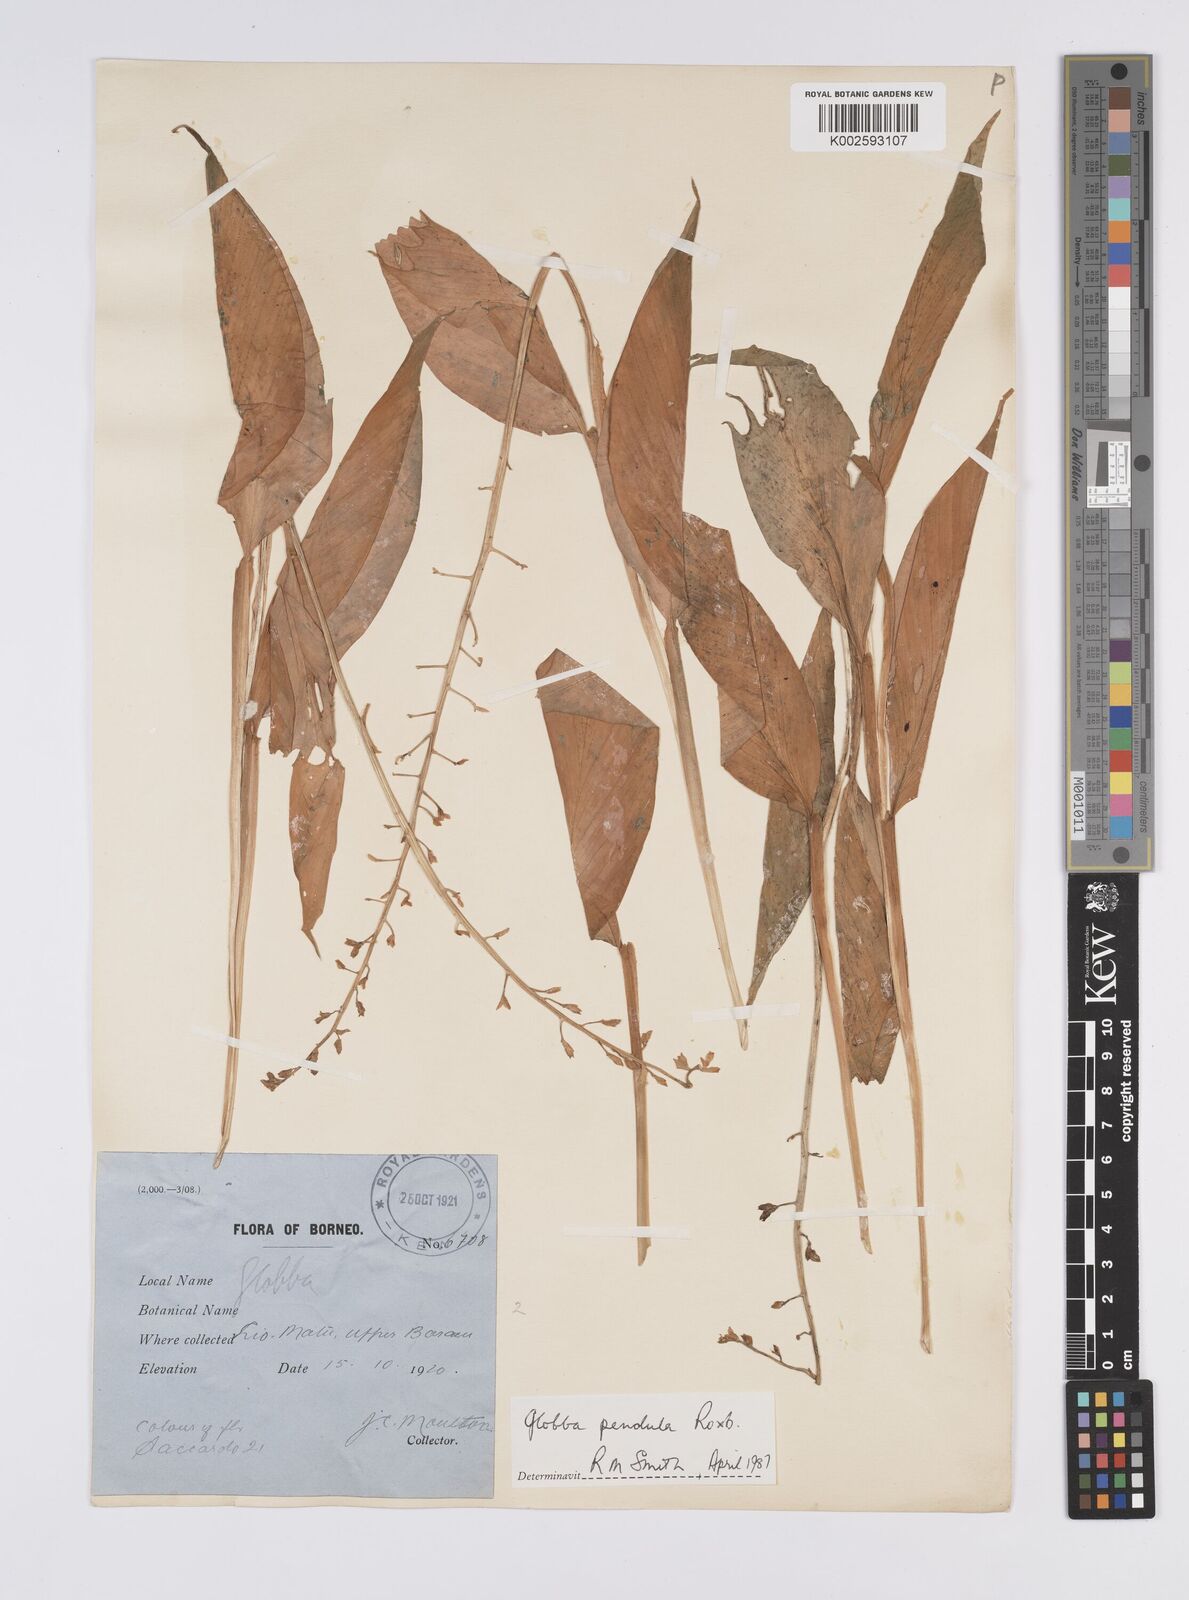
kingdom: Plantae
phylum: Tracheophyta
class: Liliopsida
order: Zingiberales
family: Zingiberaceae
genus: Globba
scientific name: Globba pendula
